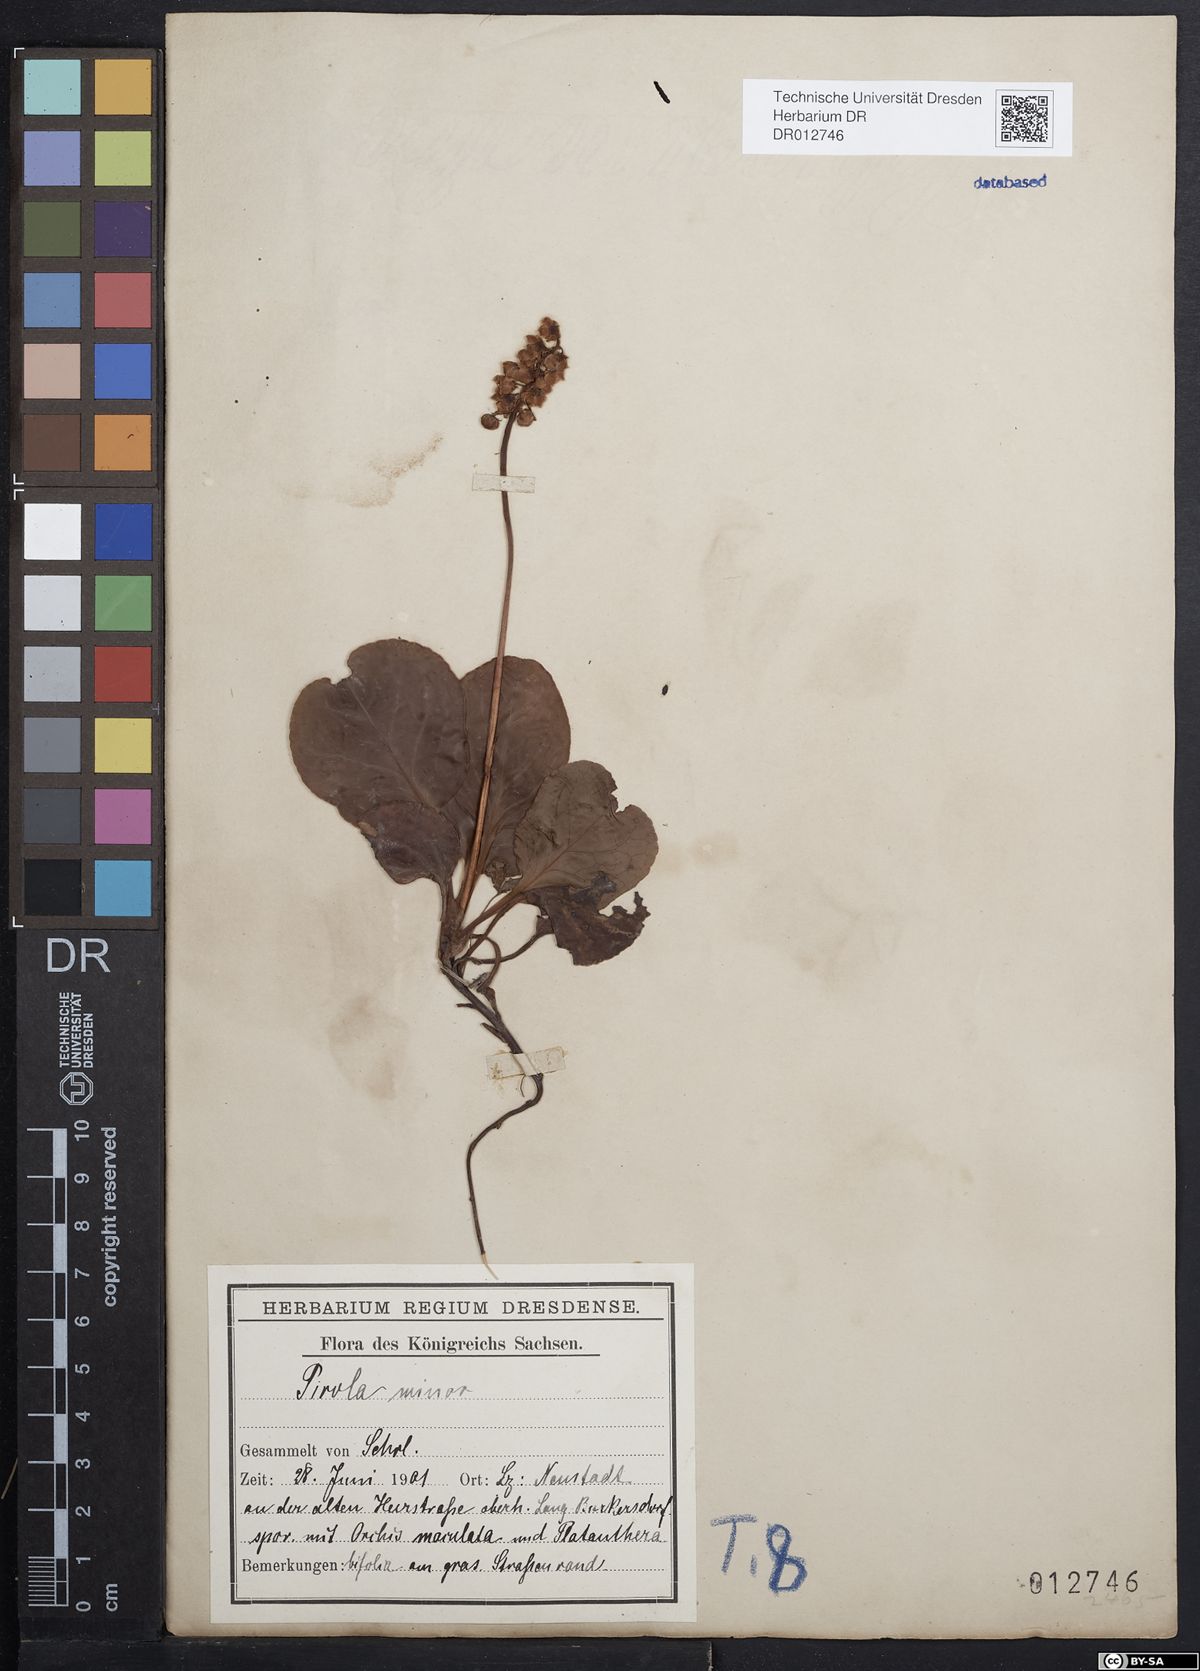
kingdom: Plantae
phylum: Tracheophyta
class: Magnoliopsida
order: Ericales
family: Ericaceae
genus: Pyrola
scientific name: Pyrola minor
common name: Common wintergreen
